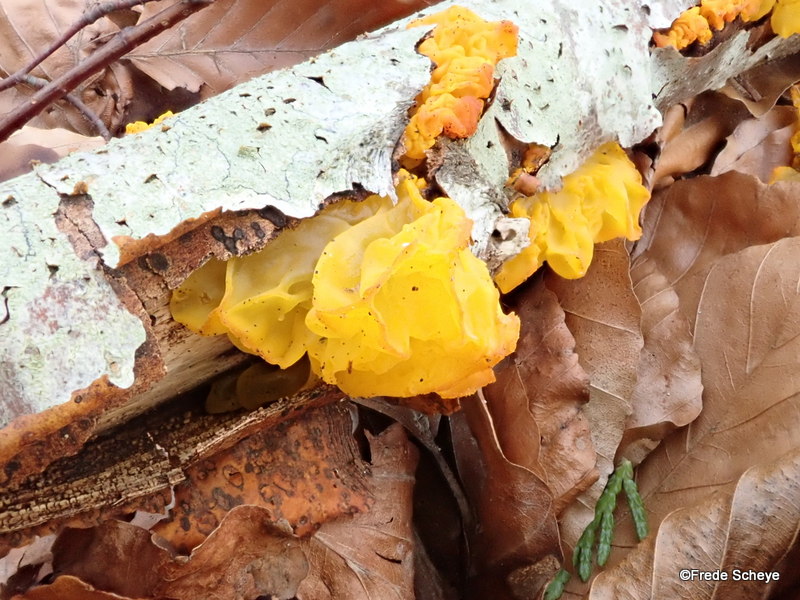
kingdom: Fungi
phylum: Basidiomycota
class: Tremellomycetes
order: Tremellales
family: Tremellaceae
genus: Tremella
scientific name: Tremella mesenterica
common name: gul bævresvamp
